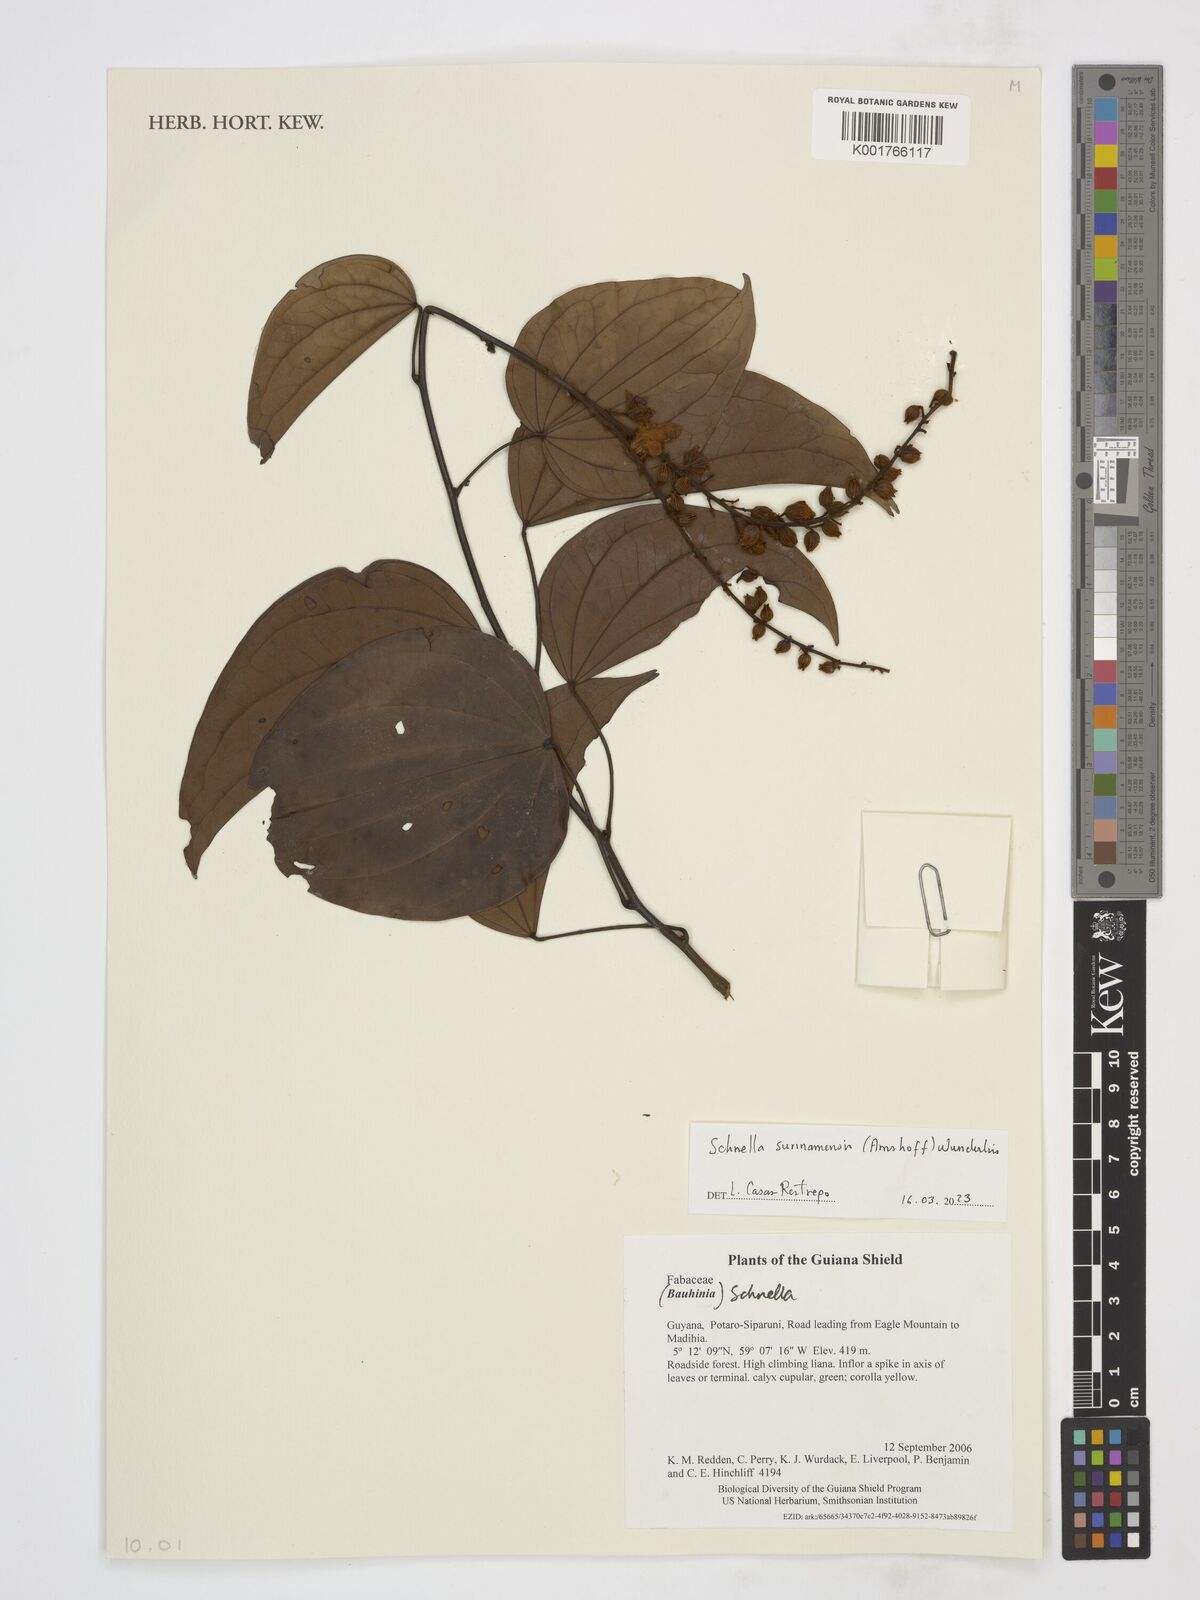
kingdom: Plantae
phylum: Tracheophyta
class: Magnoliopsida
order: Fabales
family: Fabaceae
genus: Schnella
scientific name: Schnella surinamensis
